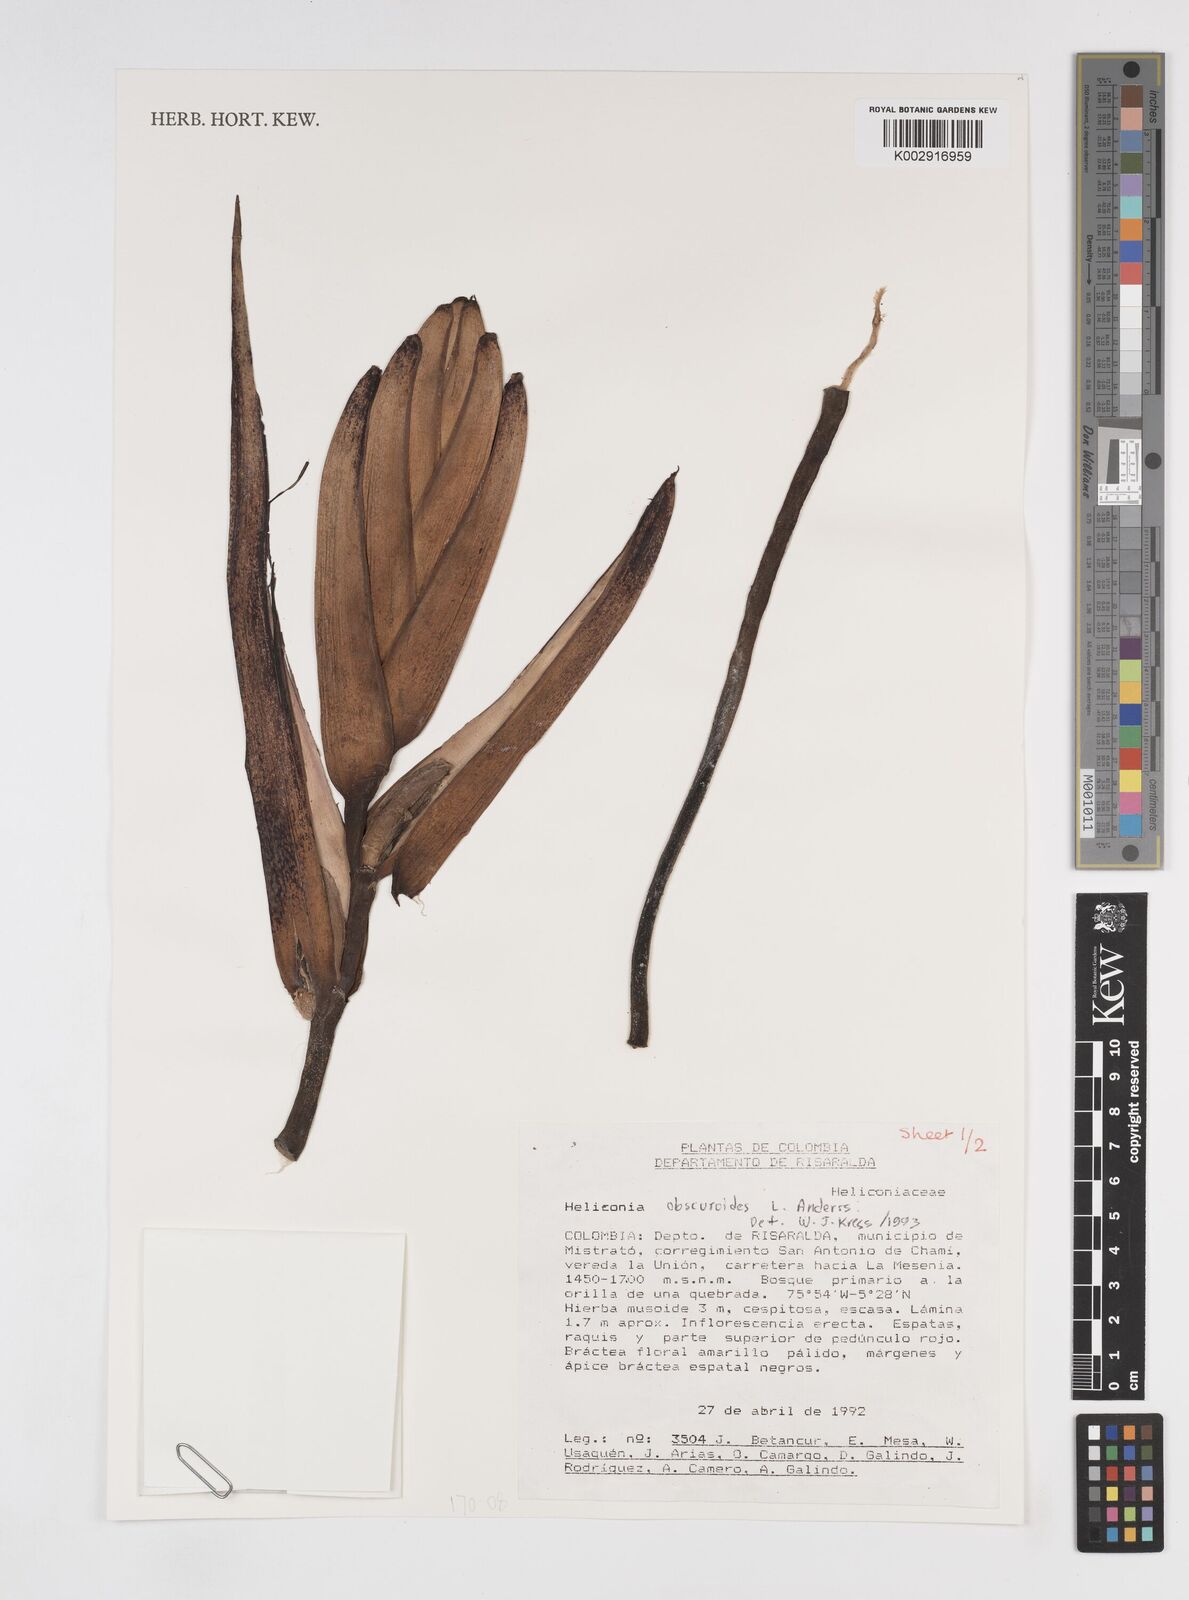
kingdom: Plantae
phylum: Tracheophyta
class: Liliopsida
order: Zingiberales
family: Heliconiaceae
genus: Heliconia
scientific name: Heliconia obscuroides
